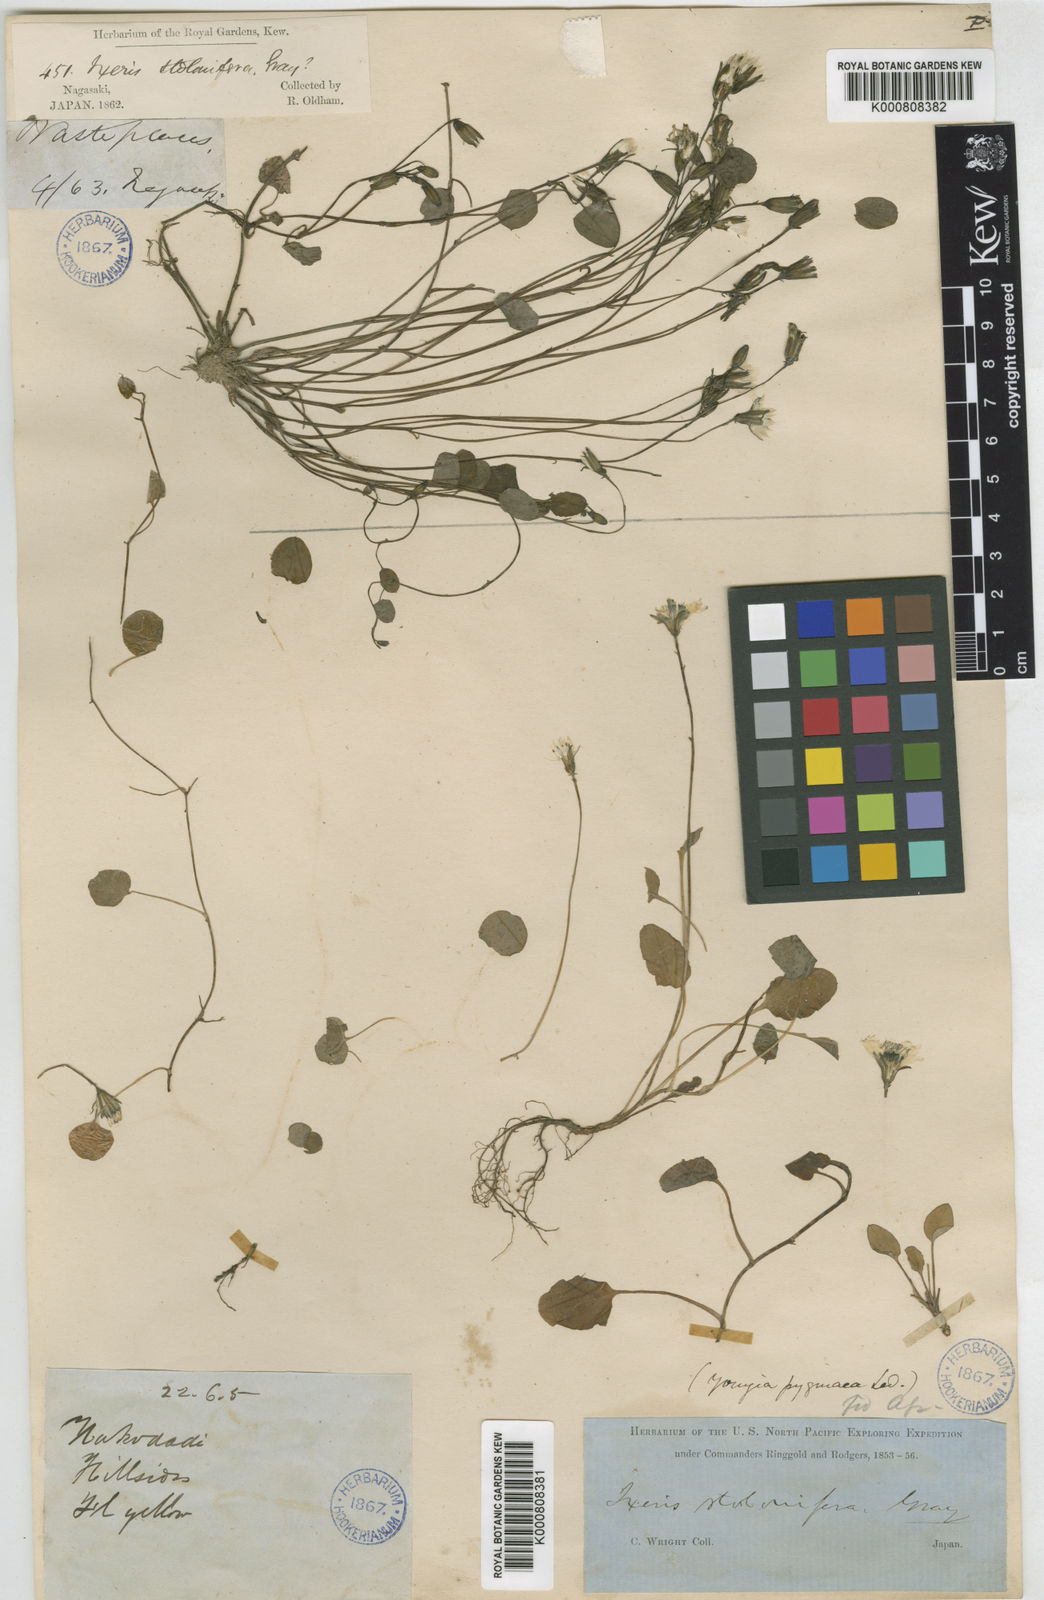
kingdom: Plantae
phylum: Tracheophyta
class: Magnoliopsida
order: Asterales
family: Asteraceae
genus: Ixeris
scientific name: Ixeris stolonifera
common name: Creeping lettuce
